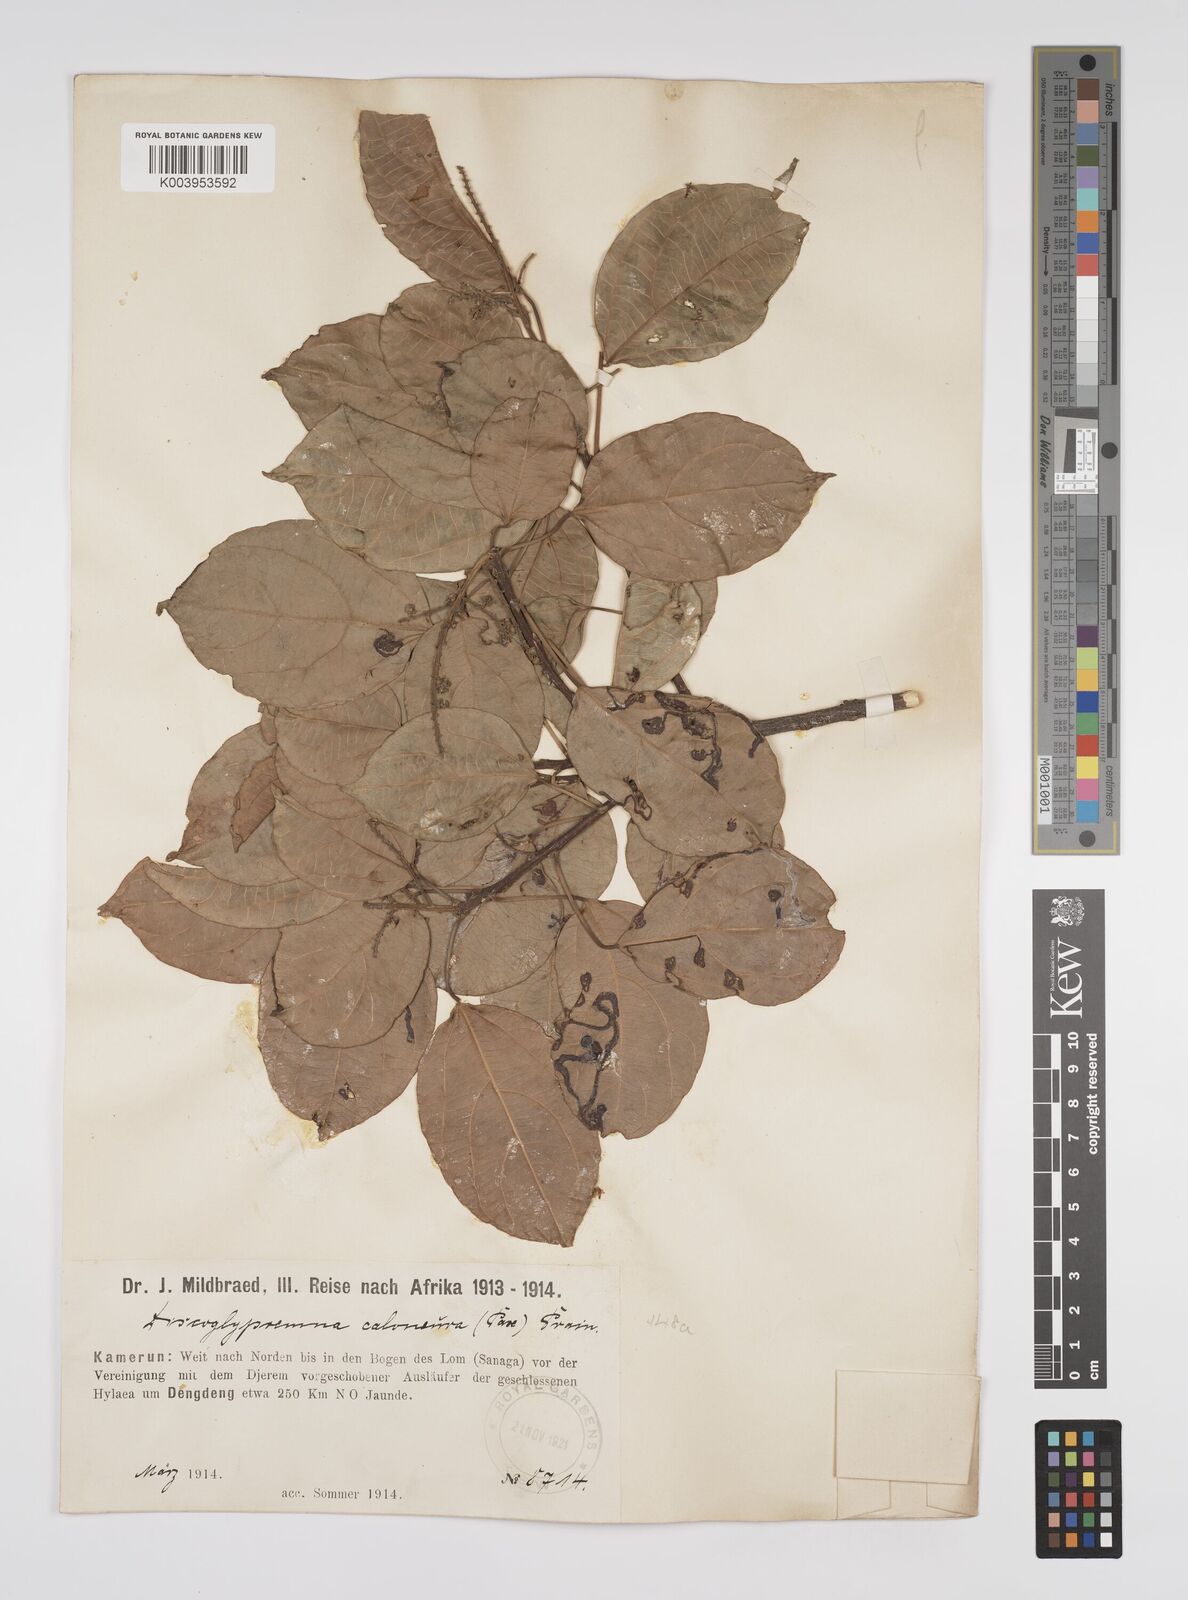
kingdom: Plantae
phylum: Tracheophyta
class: Magnoliopsida
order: Malpighiales
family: Euphorbiaceae
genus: Discoglypremna
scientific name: Discoglypremna caloneura
